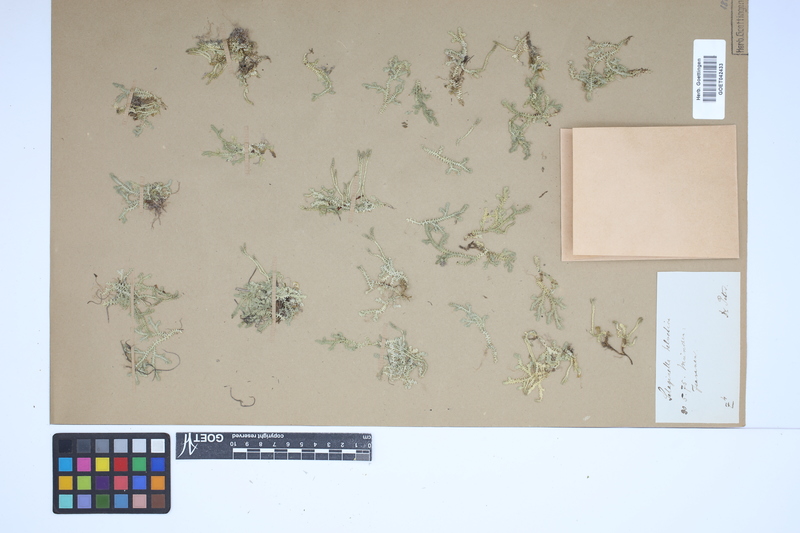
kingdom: Plantae
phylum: Tracheophyta
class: Lycopodiopsida
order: Selaginellales
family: Selaginellaceae
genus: Selaginella
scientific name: Selaginella helvetica
